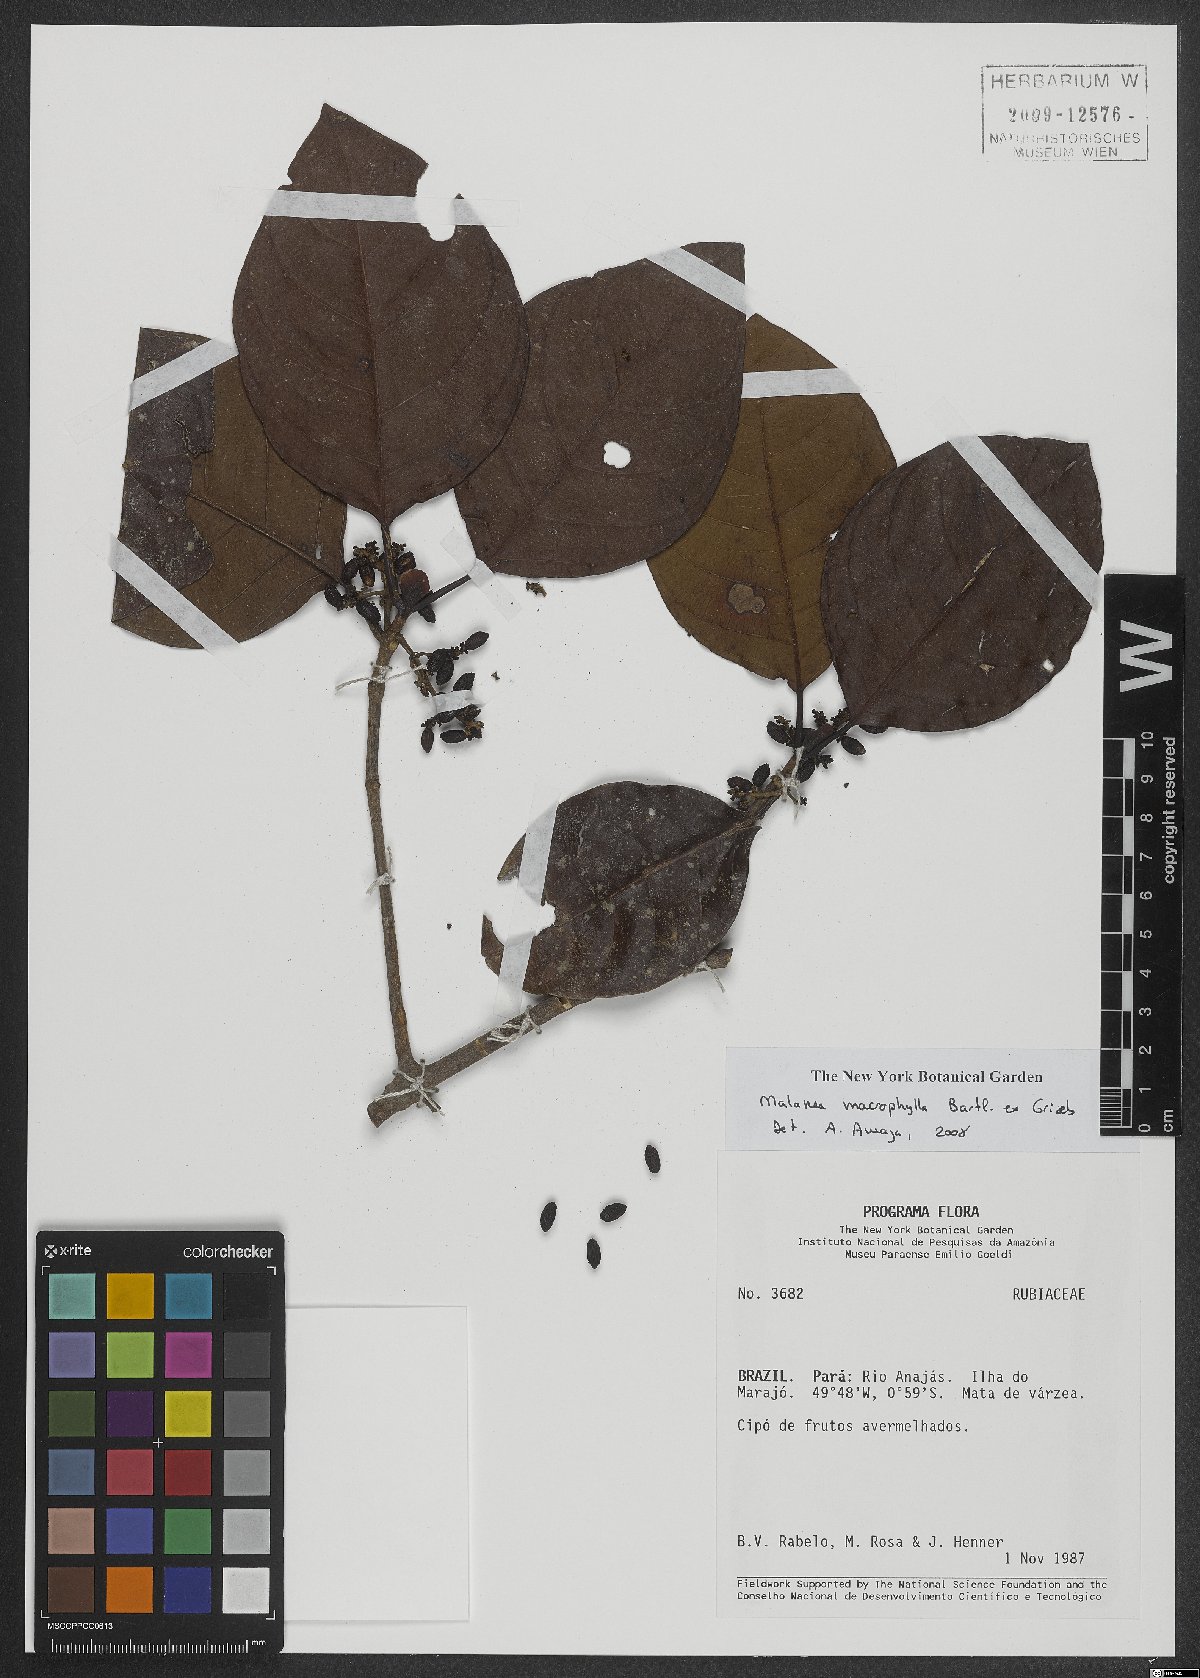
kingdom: Plantae
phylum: Tracheophyta
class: Magnoliopsida
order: Gentianales
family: Rubiaceae
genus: Malanea
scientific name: Malanea glabra
